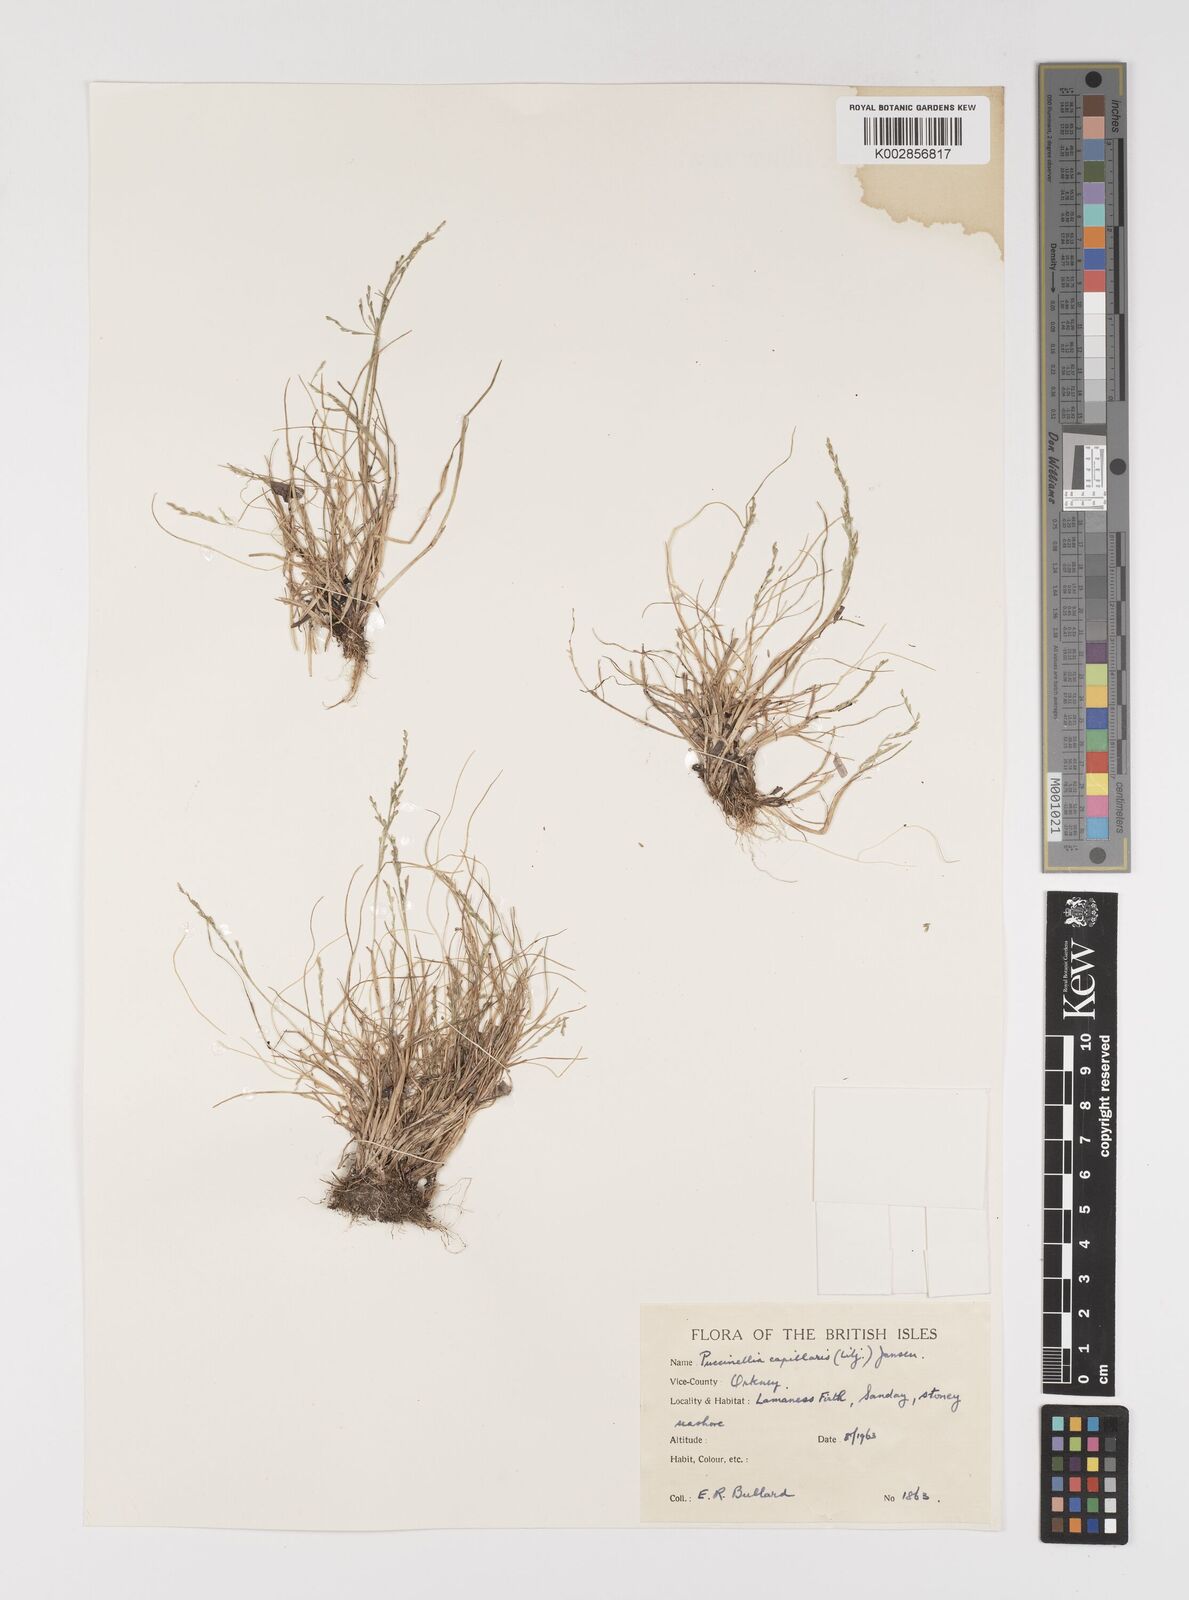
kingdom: Plantae
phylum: Tracheophyta
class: Liliopsida
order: Poales
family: Poaceae
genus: Puccinellia
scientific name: Puccinellia distans
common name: Weeping alkaligrass
